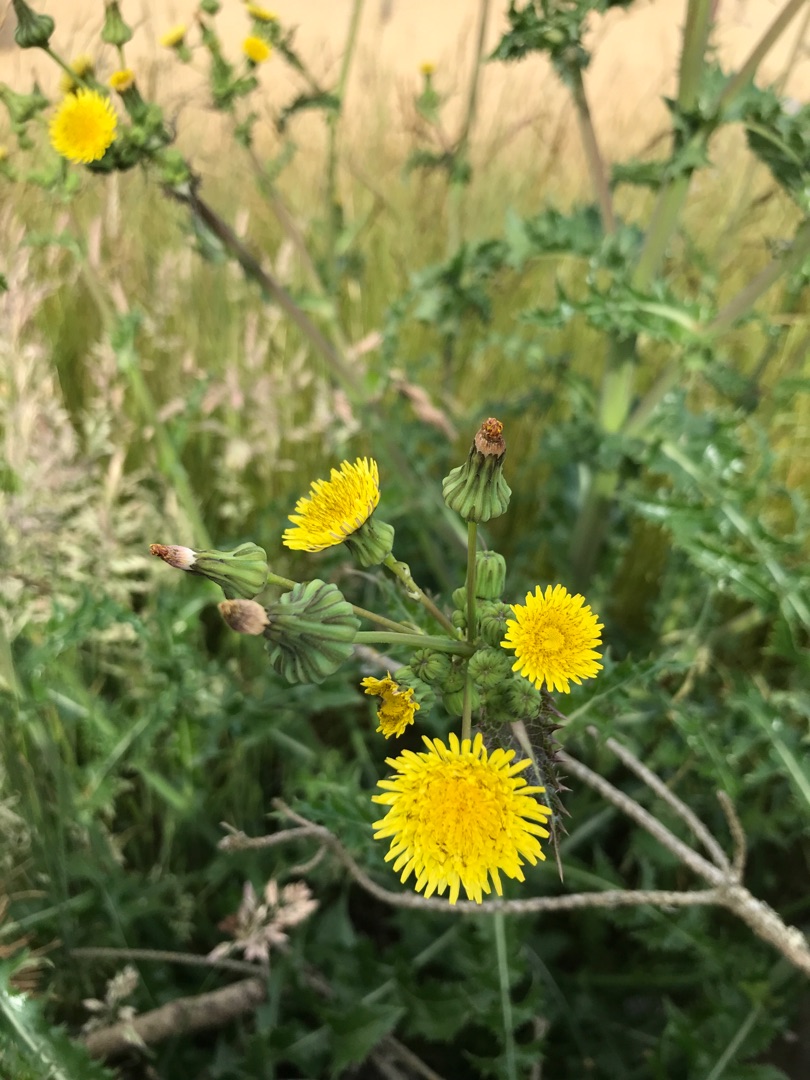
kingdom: Plantae
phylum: Tracheophyta
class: Magnoliopsida
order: Asterales
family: Asteraceae
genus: Sonchus
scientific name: Sonchus asper
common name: Ru svinemælk
